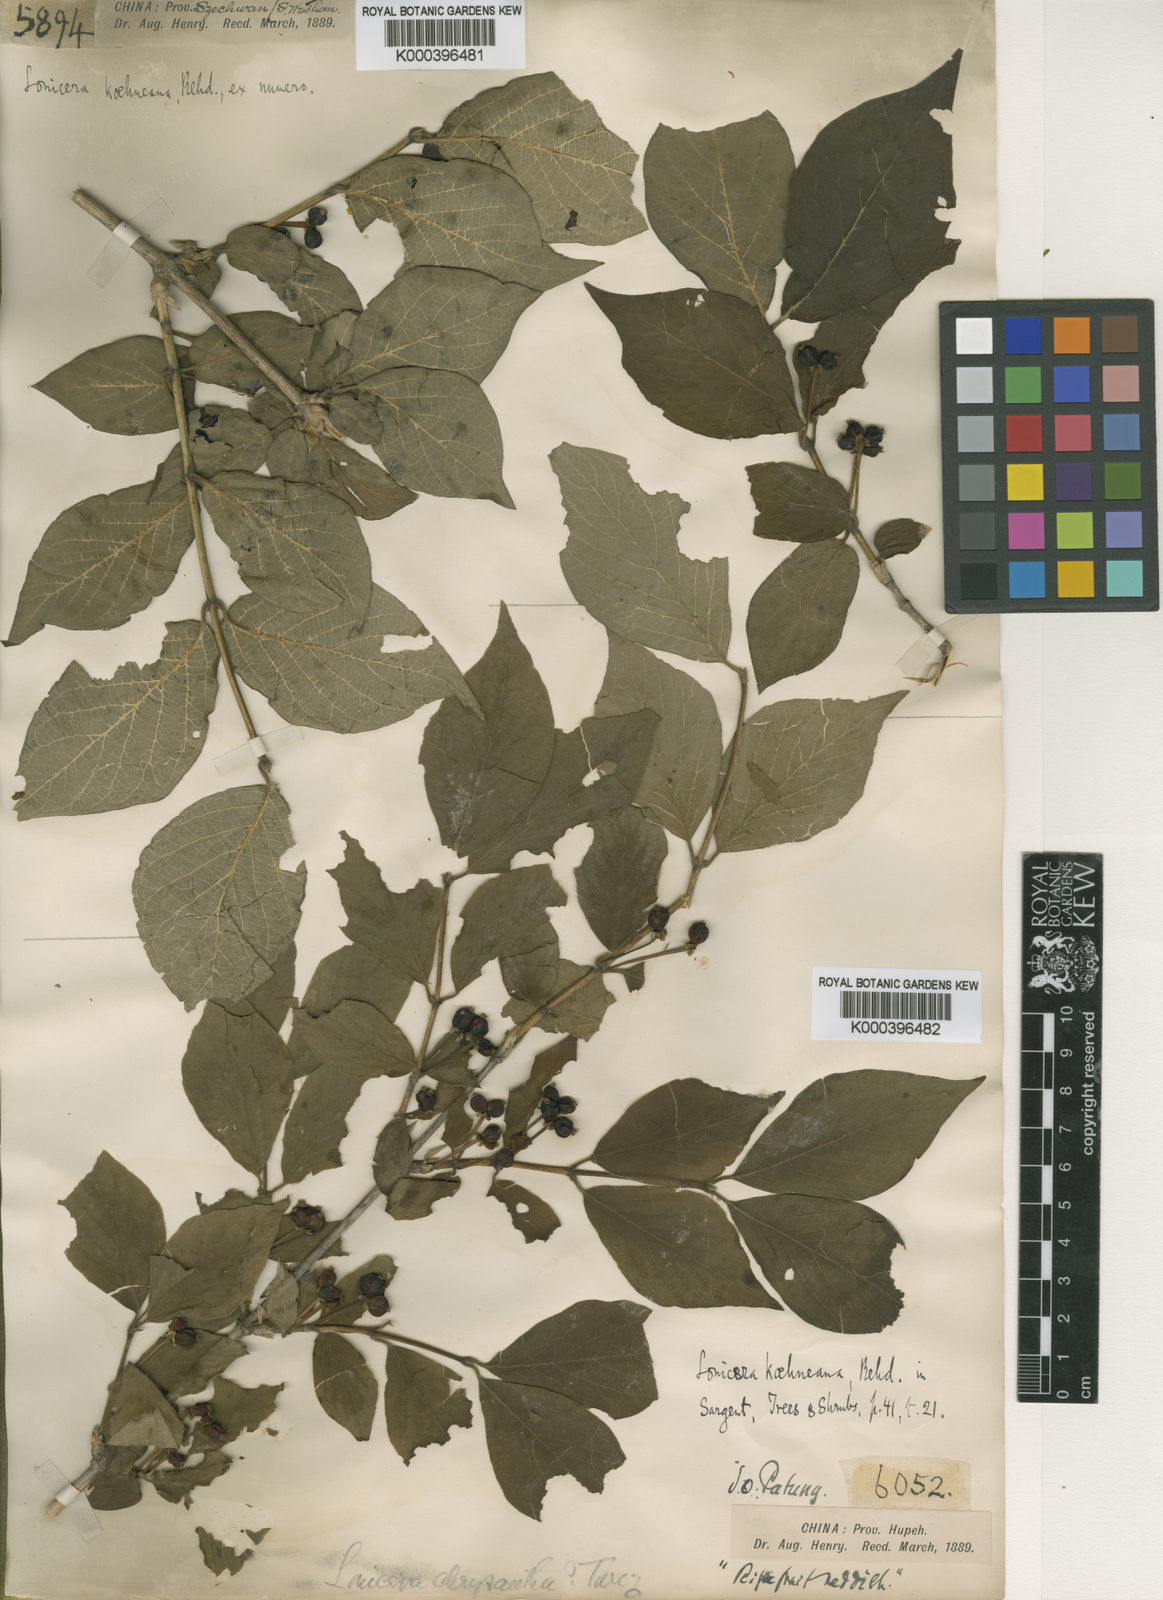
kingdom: Plantae
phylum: Tracheophyta
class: Magnoliopsida
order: Dipsacales
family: Caprifoliaceae
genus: Lonicera
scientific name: Lonicera chrysantha
